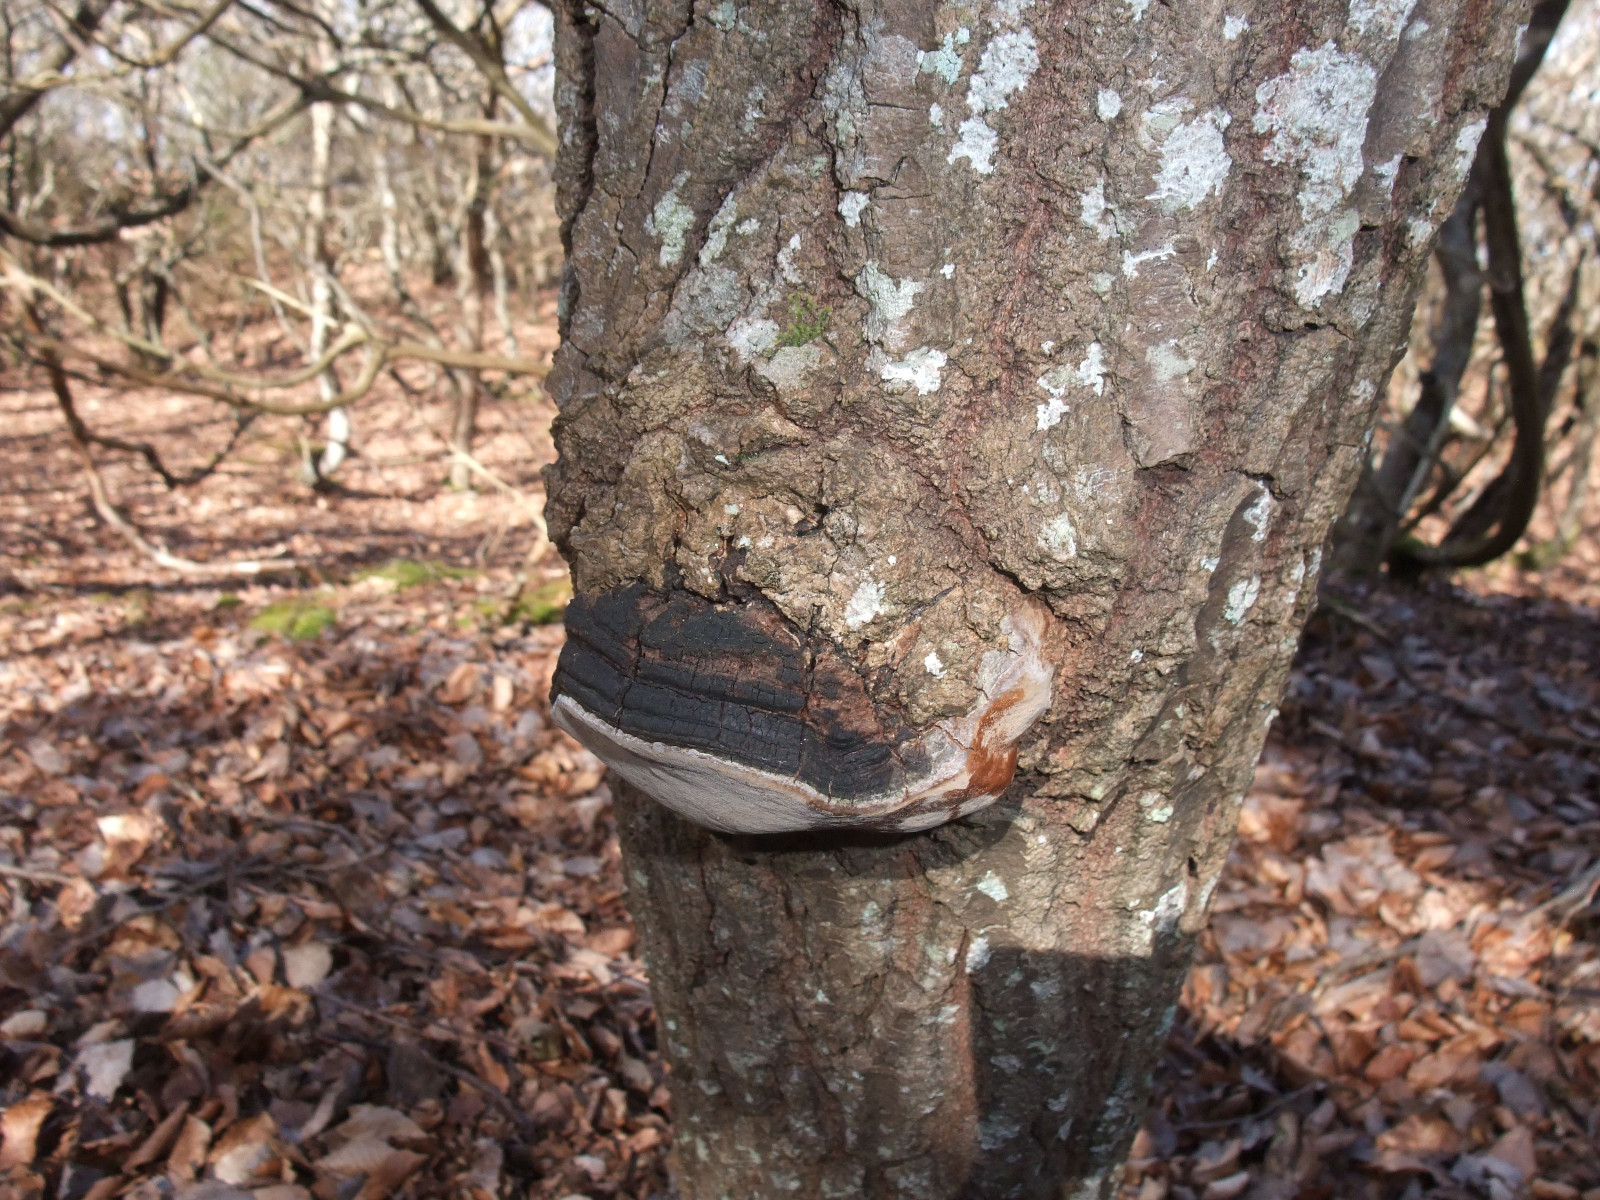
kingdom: Fungi
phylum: Basidiomycota
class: Agaricomycetes
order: Hymenochaetales
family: Hymenochaetaceae
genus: Phellinus
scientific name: Phellinus tremulae
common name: aspe-ildporesvamp
